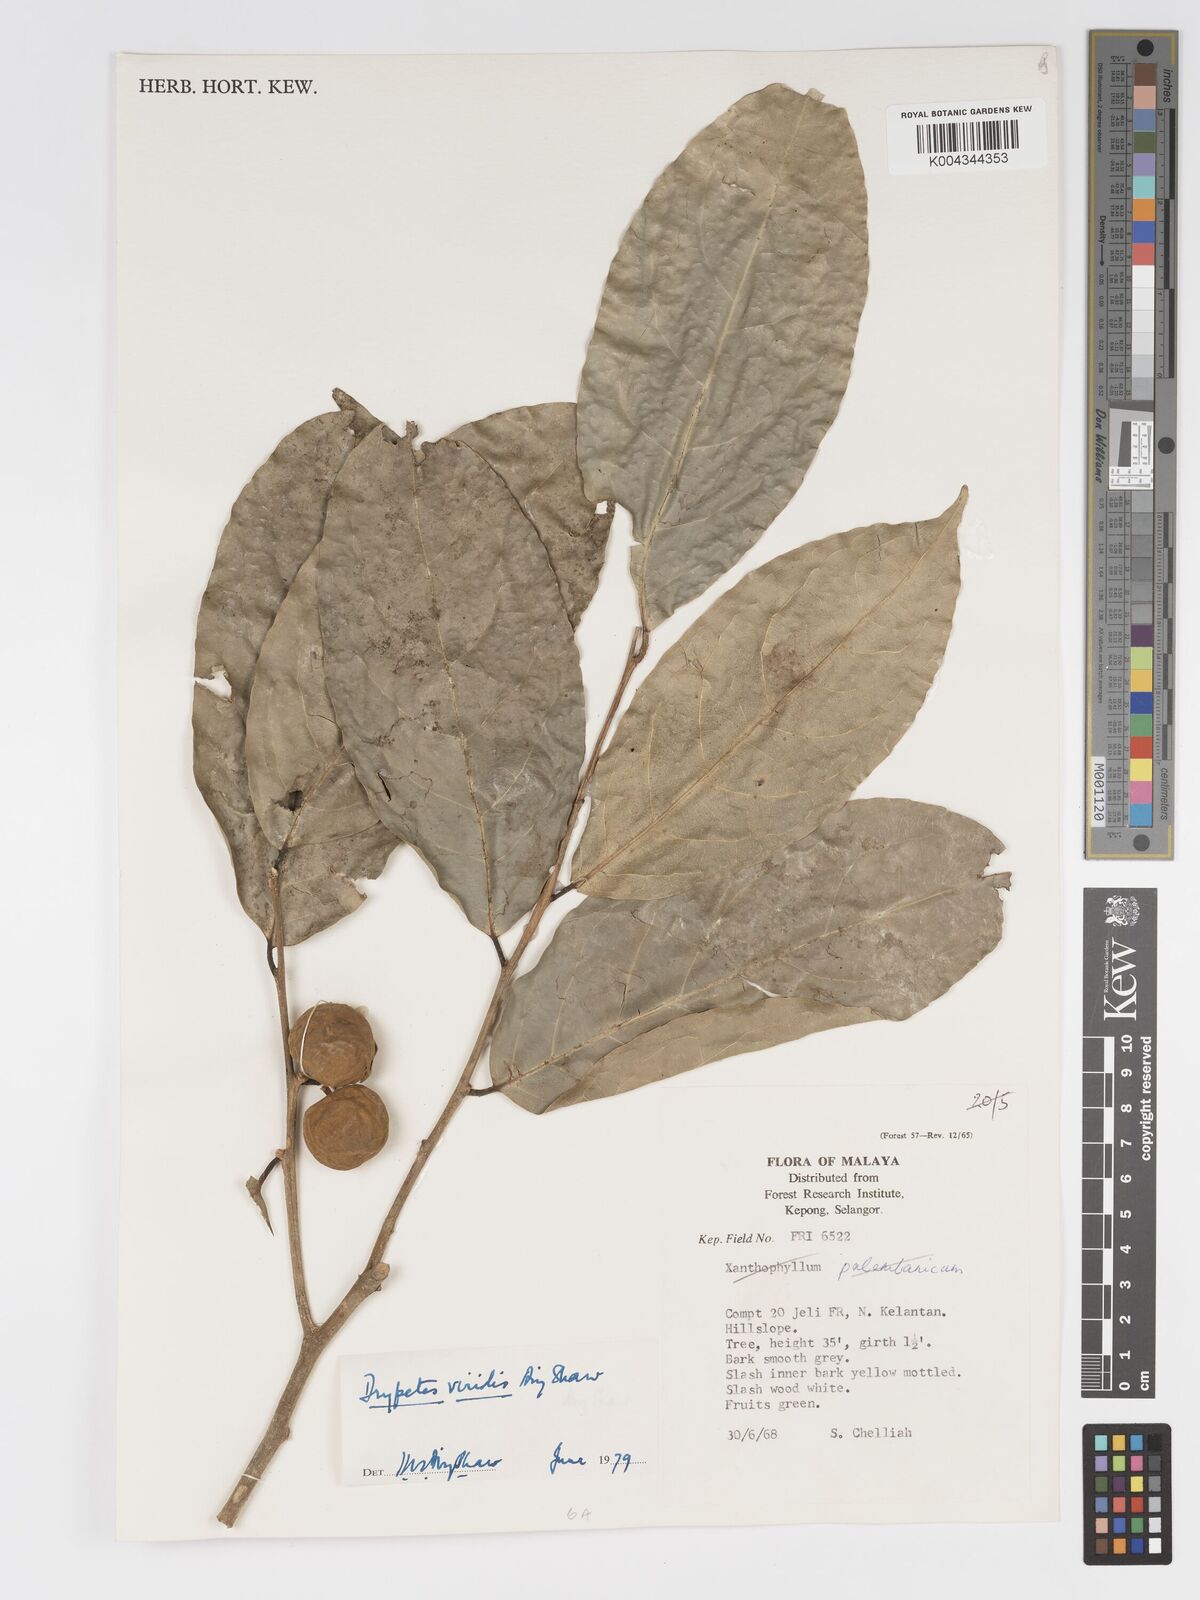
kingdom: Plantae
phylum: Tracheophyta
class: Magnoliopsida
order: Malpighiales
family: Putranjivaceae
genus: Drypetes
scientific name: Drypetes viridis
